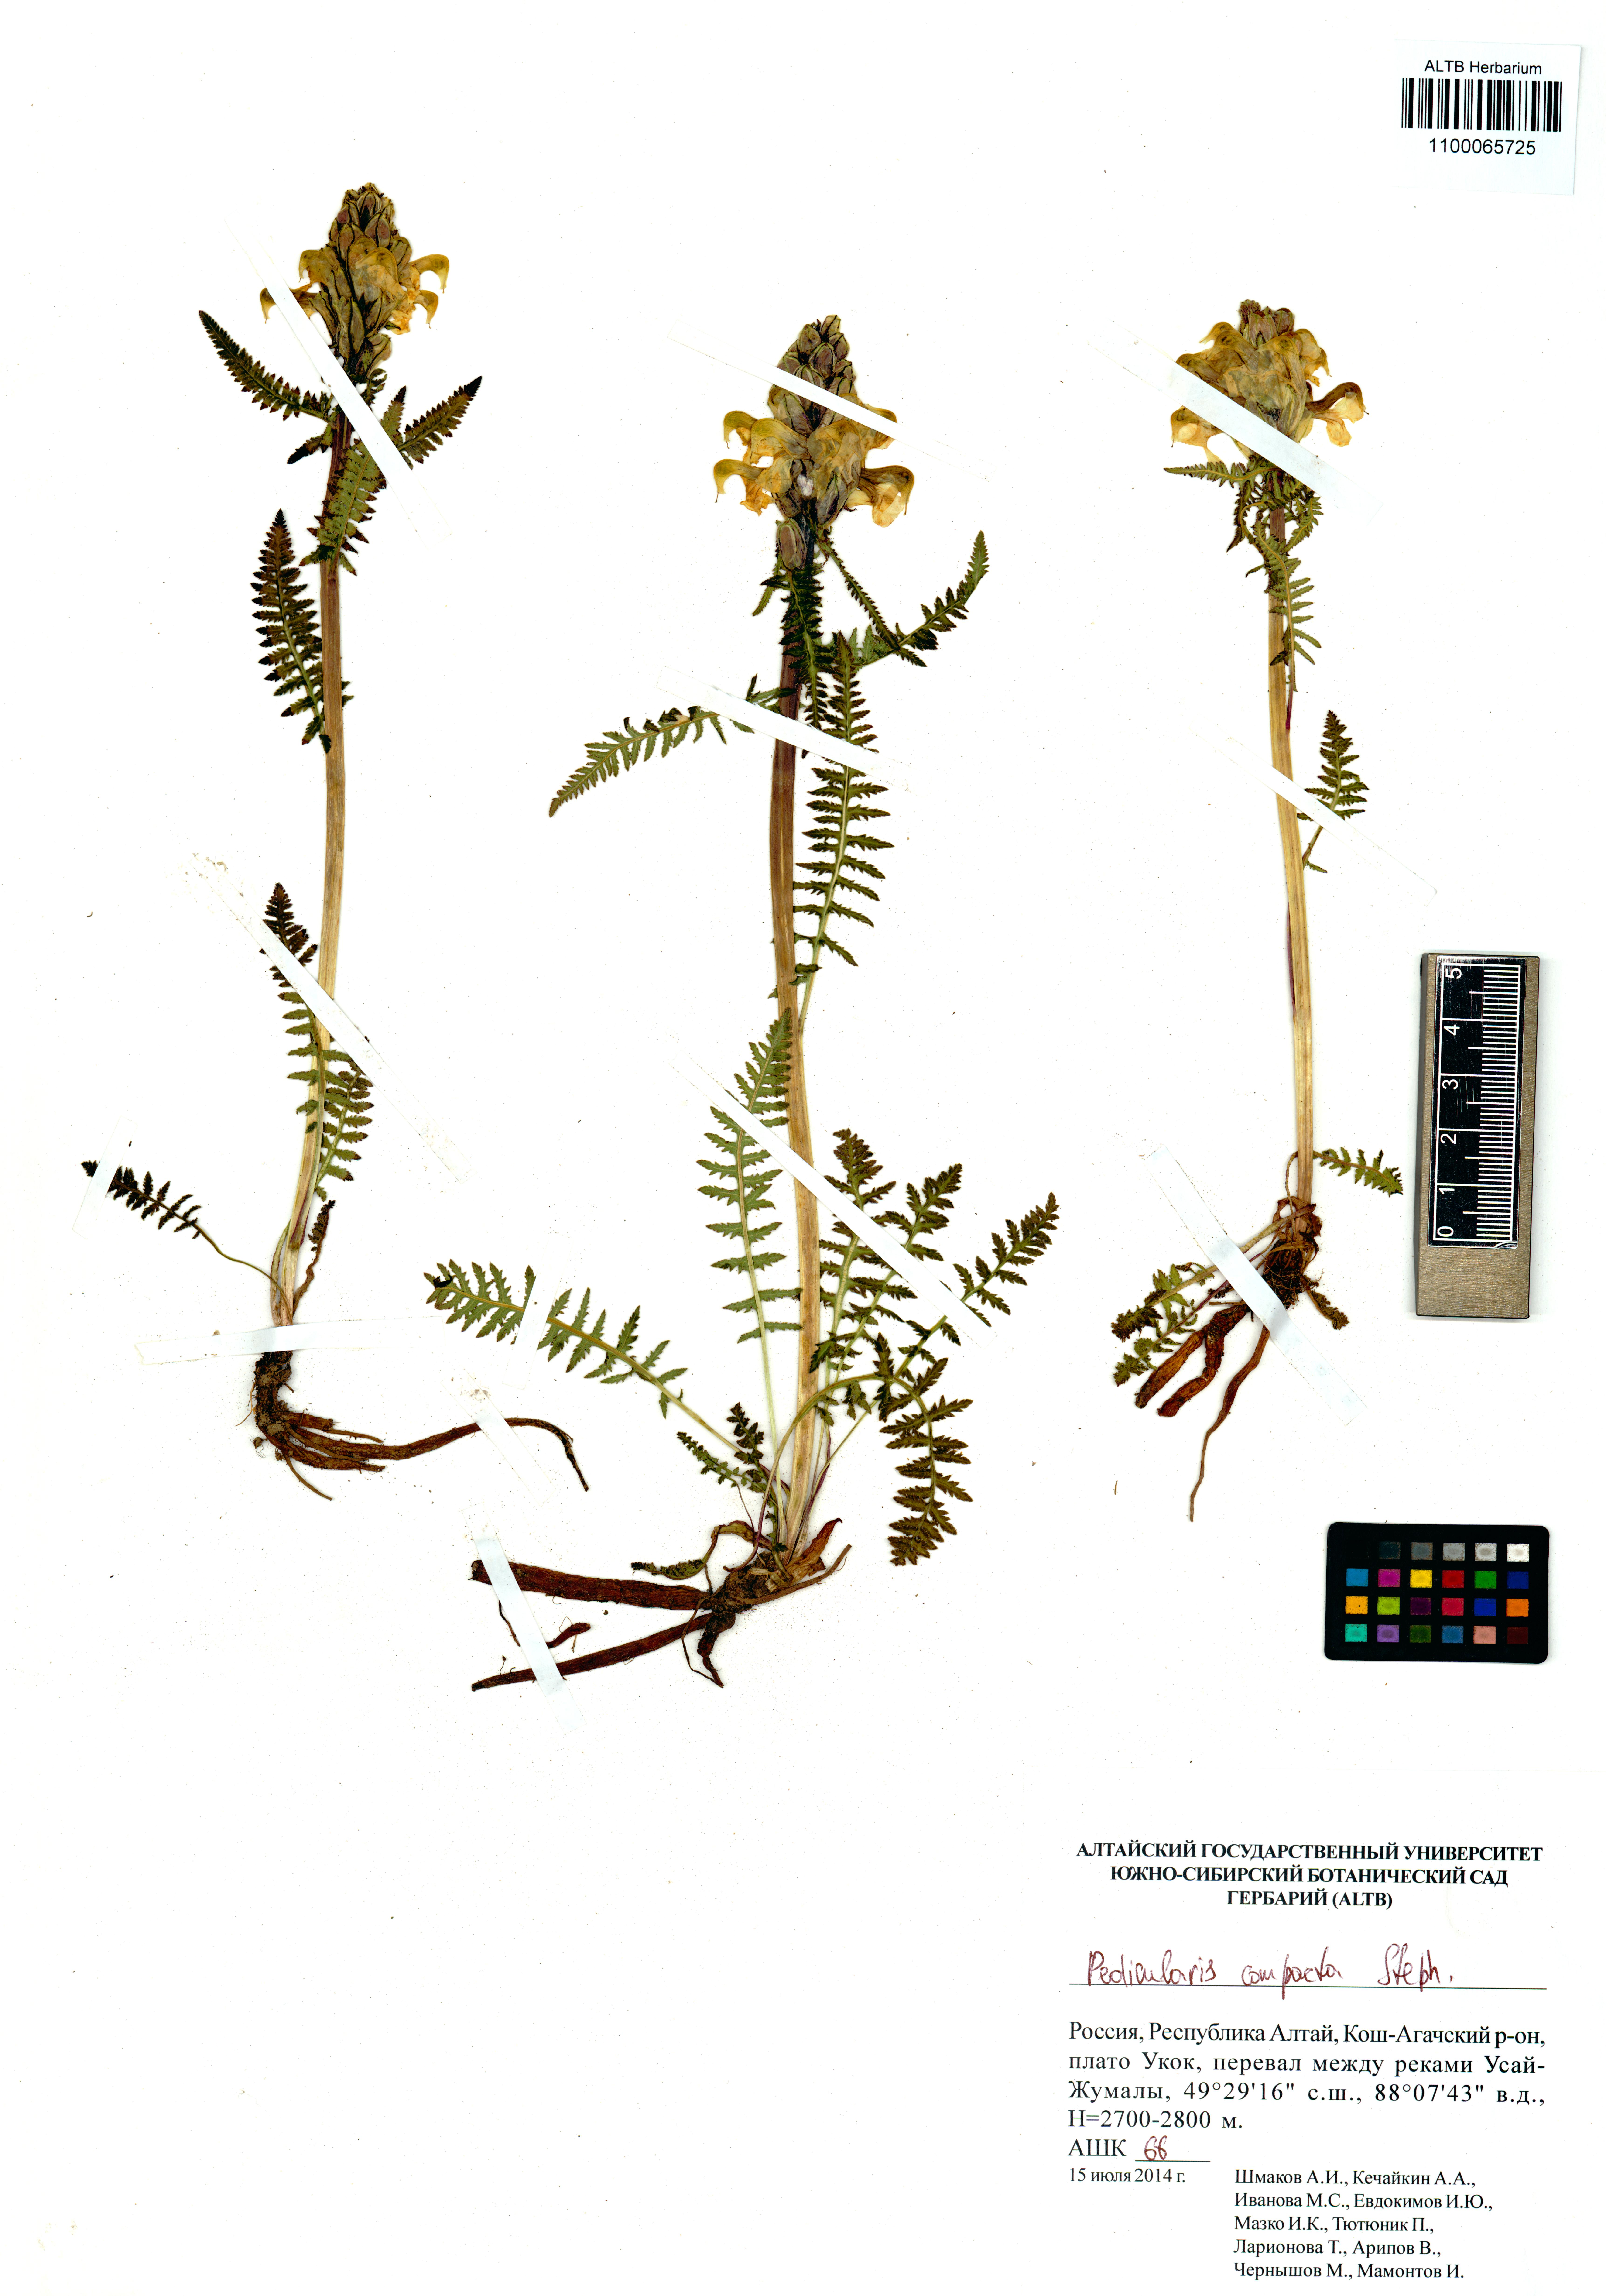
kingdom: Plantae
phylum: Tracheophyta
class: Magnoliopsida
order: Lamiales
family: Orobanchaceae
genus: Pedicularis
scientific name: Pedicularis compacta
